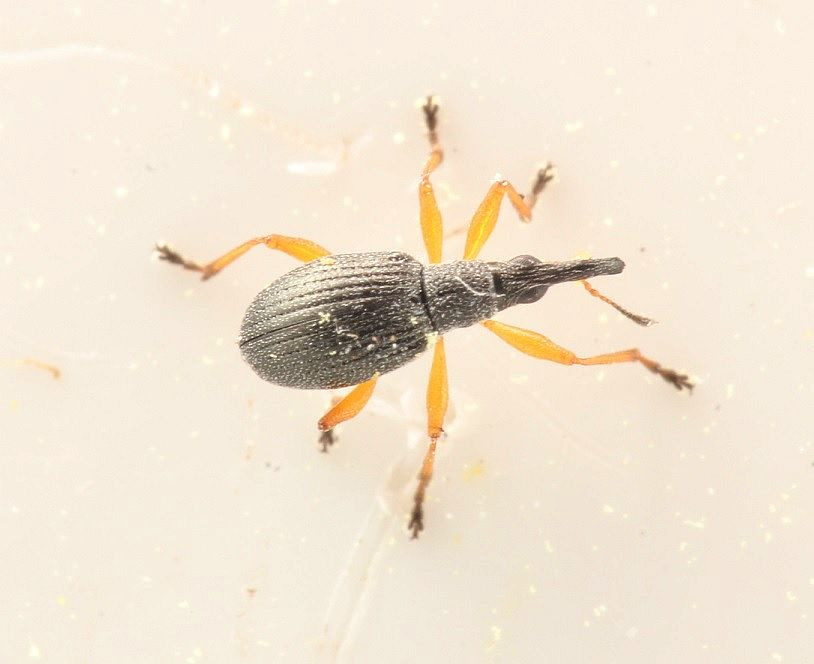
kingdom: Animalia
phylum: Arthropoda
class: Insecta
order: Coleoptera
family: Apionidae
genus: Protapion
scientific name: Protapion fulvipes
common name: Hvidkløversnudebille
